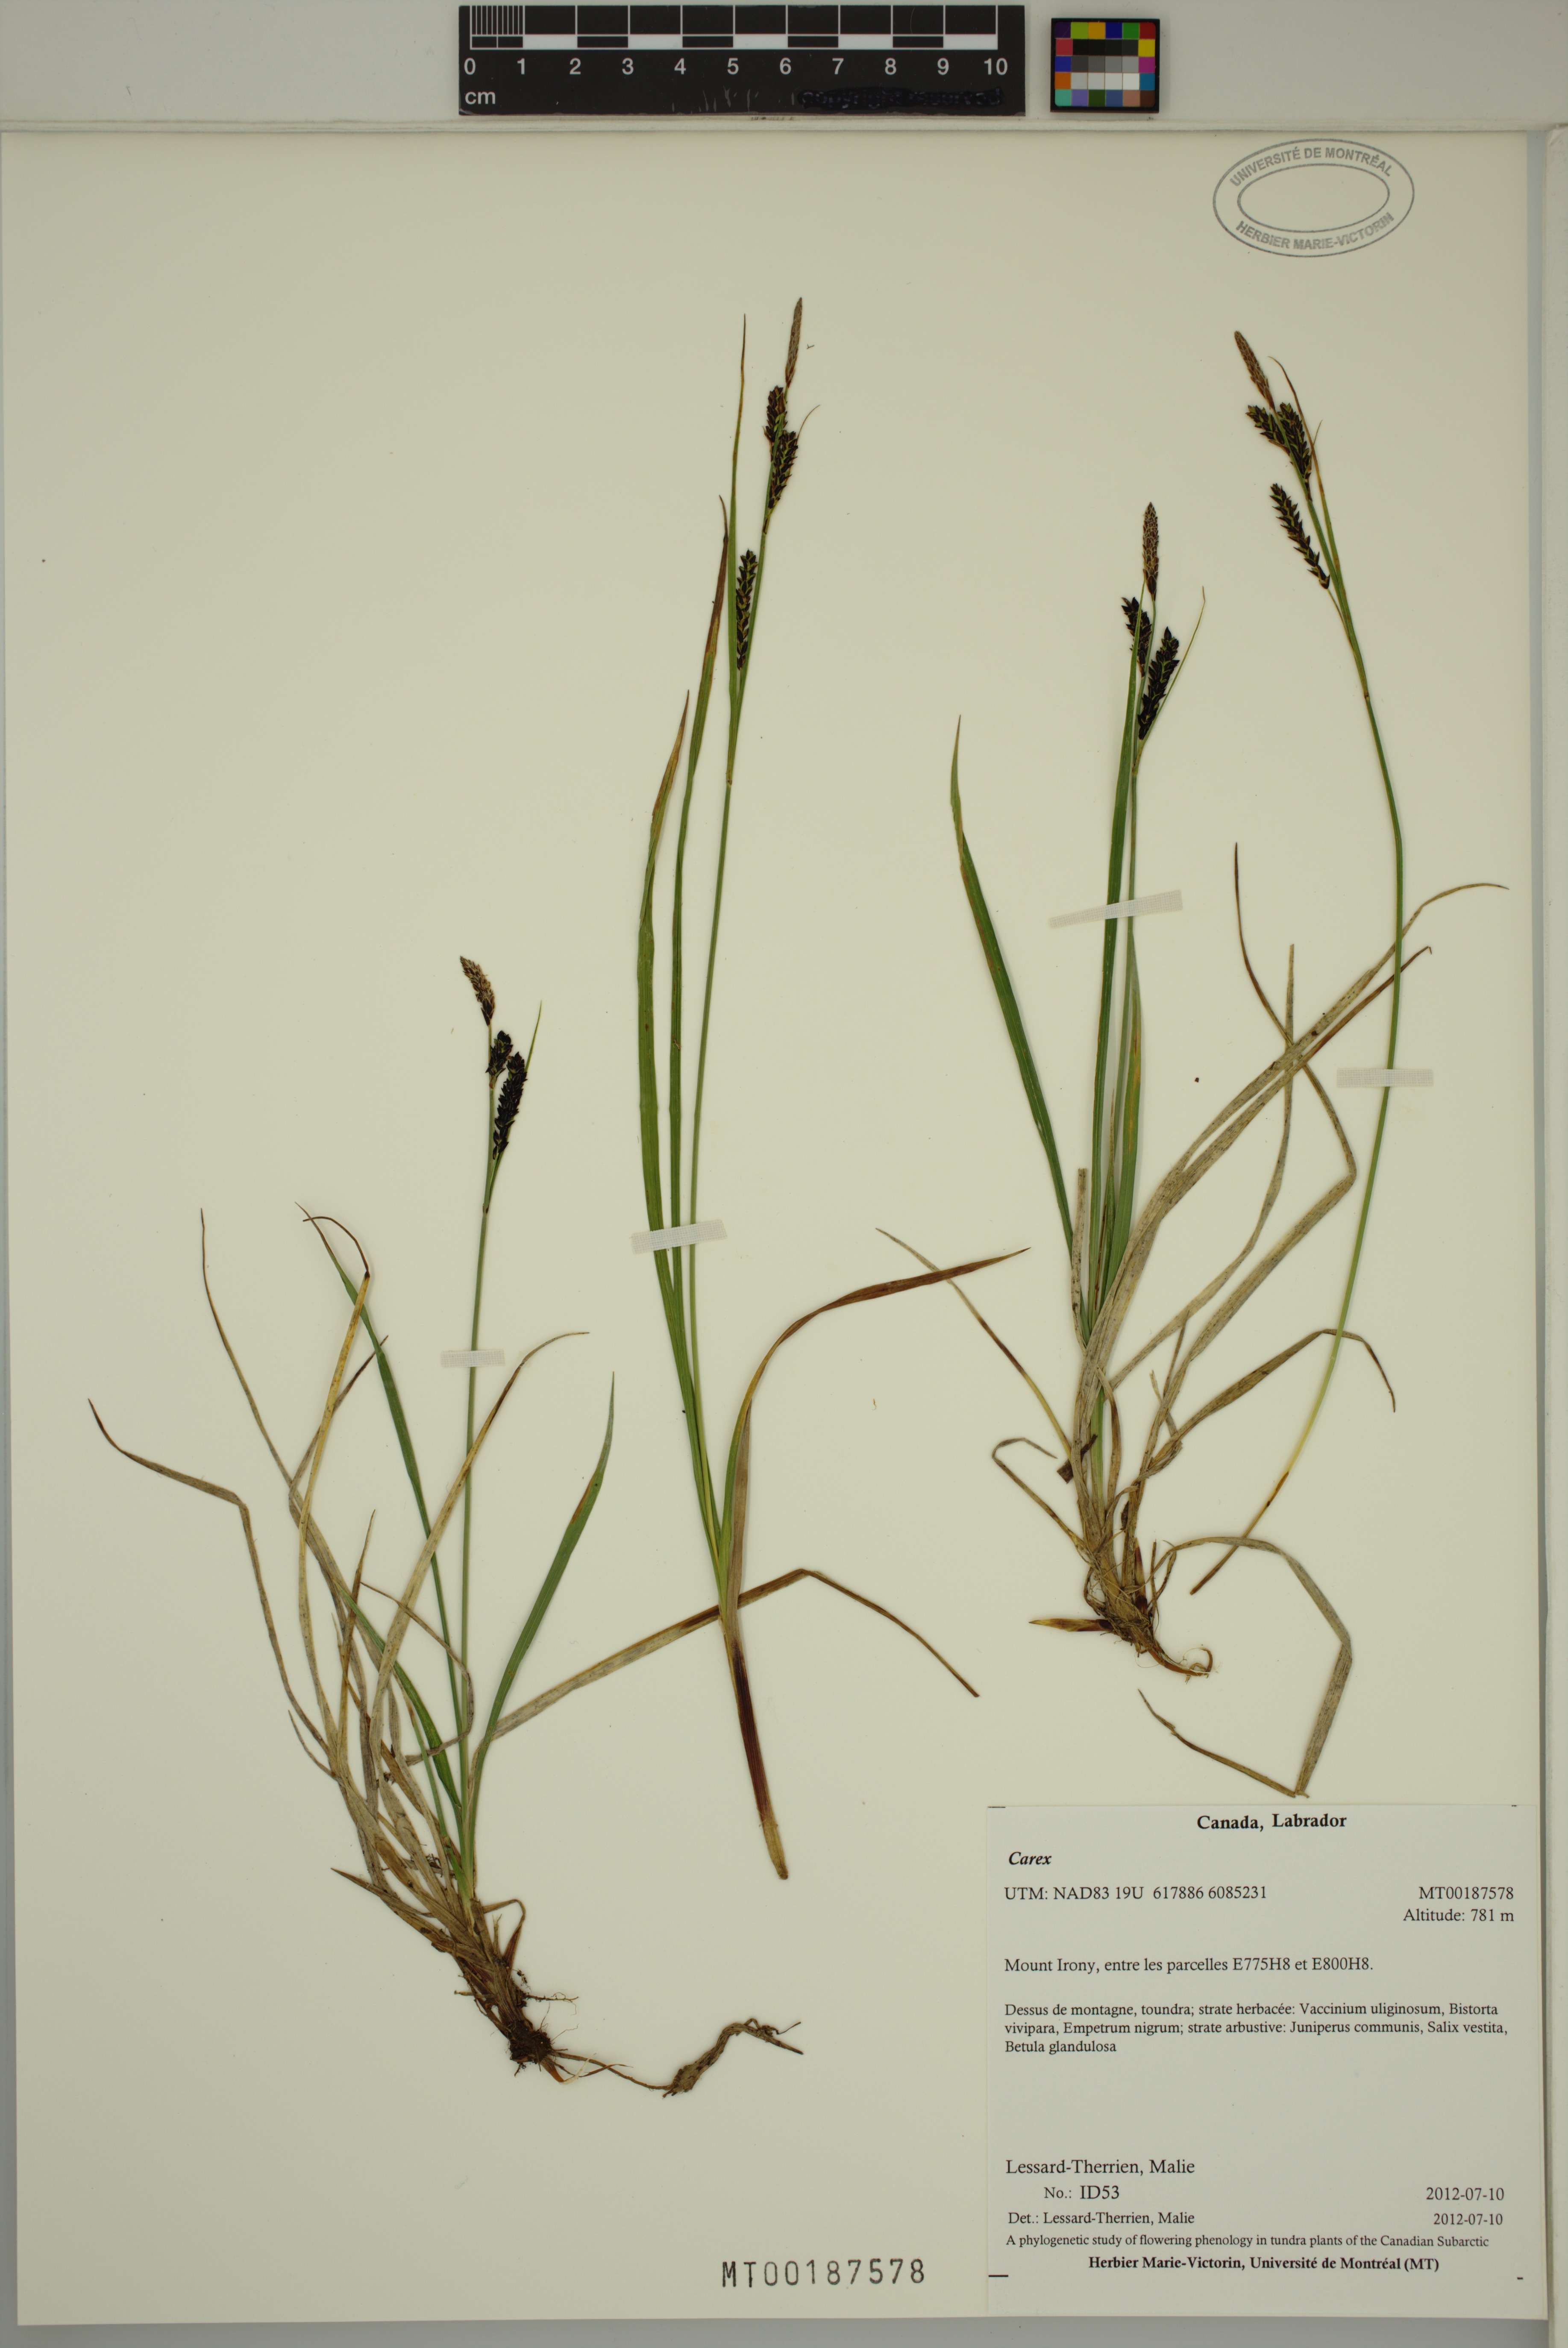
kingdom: Plantae
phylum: Tracheophyta
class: Liliopsida
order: Poales
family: Cyperaceae
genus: Carex
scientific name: Carex
